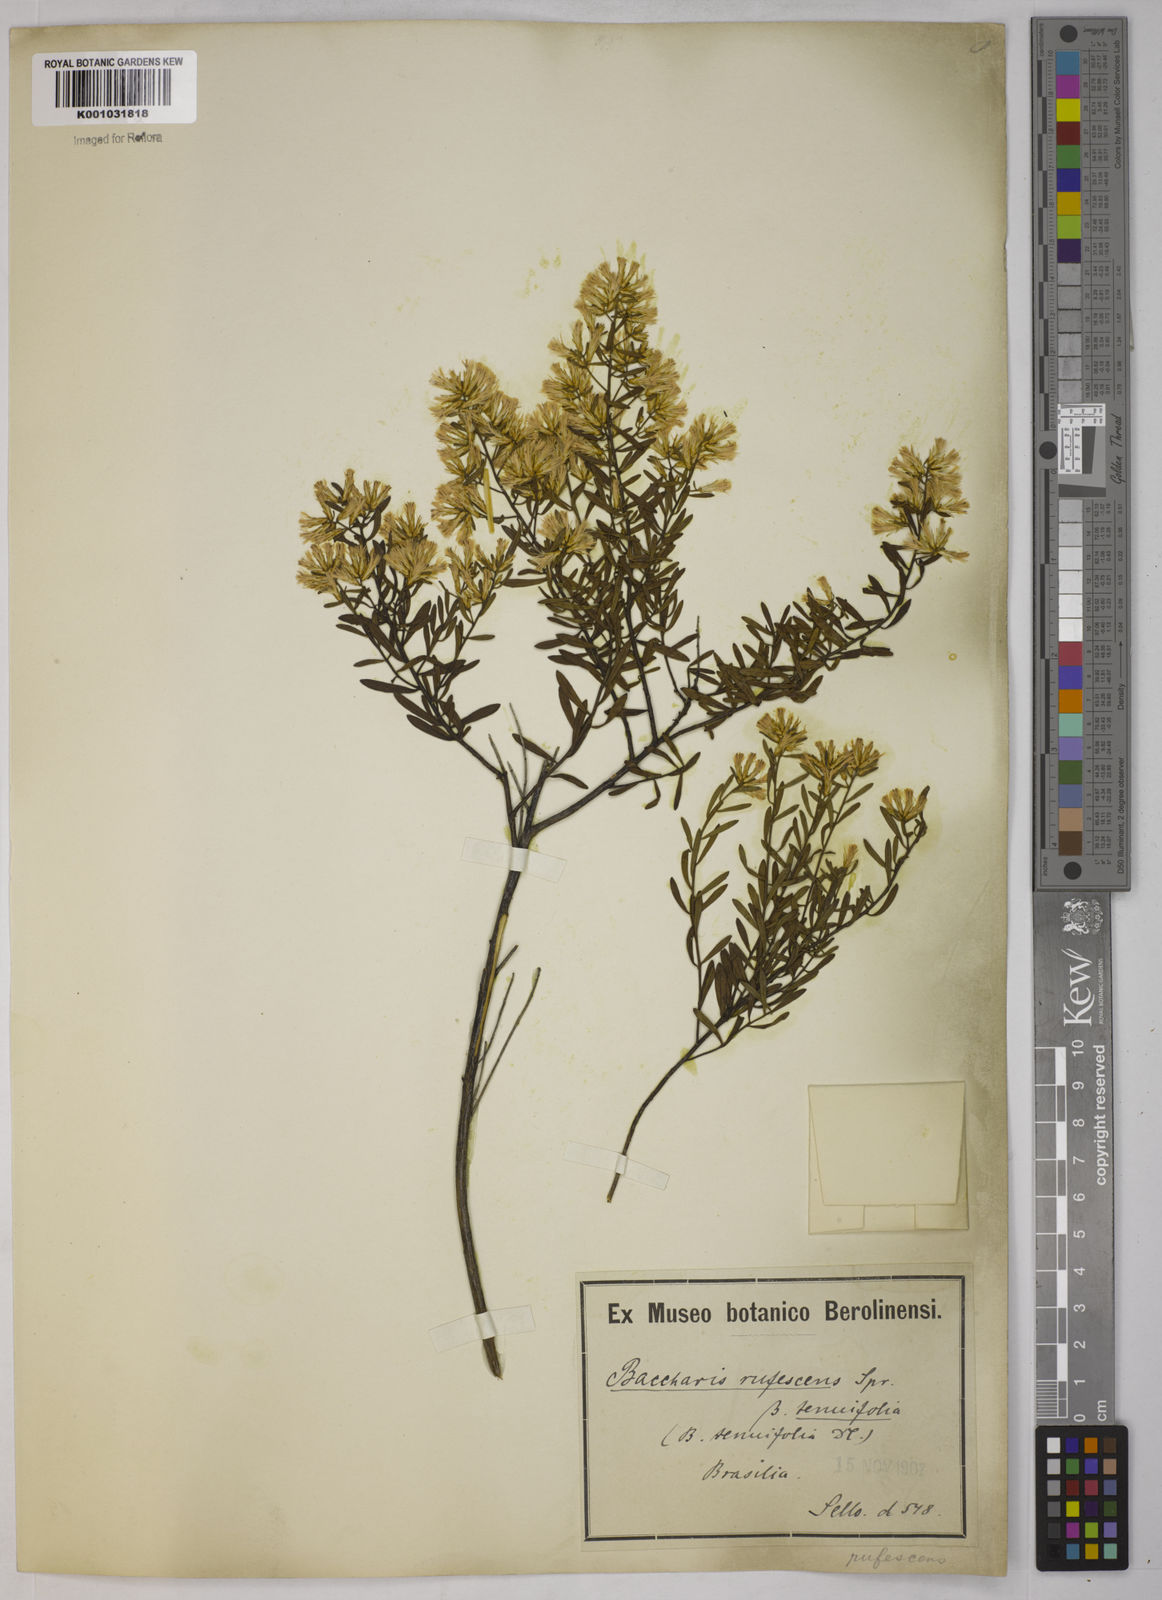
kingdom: Plantae
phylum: Tracheophyta
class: Magnoliopsida
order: Asterales
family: Asteraceae
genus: Baccharis
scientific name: Baccharis leptocephala
